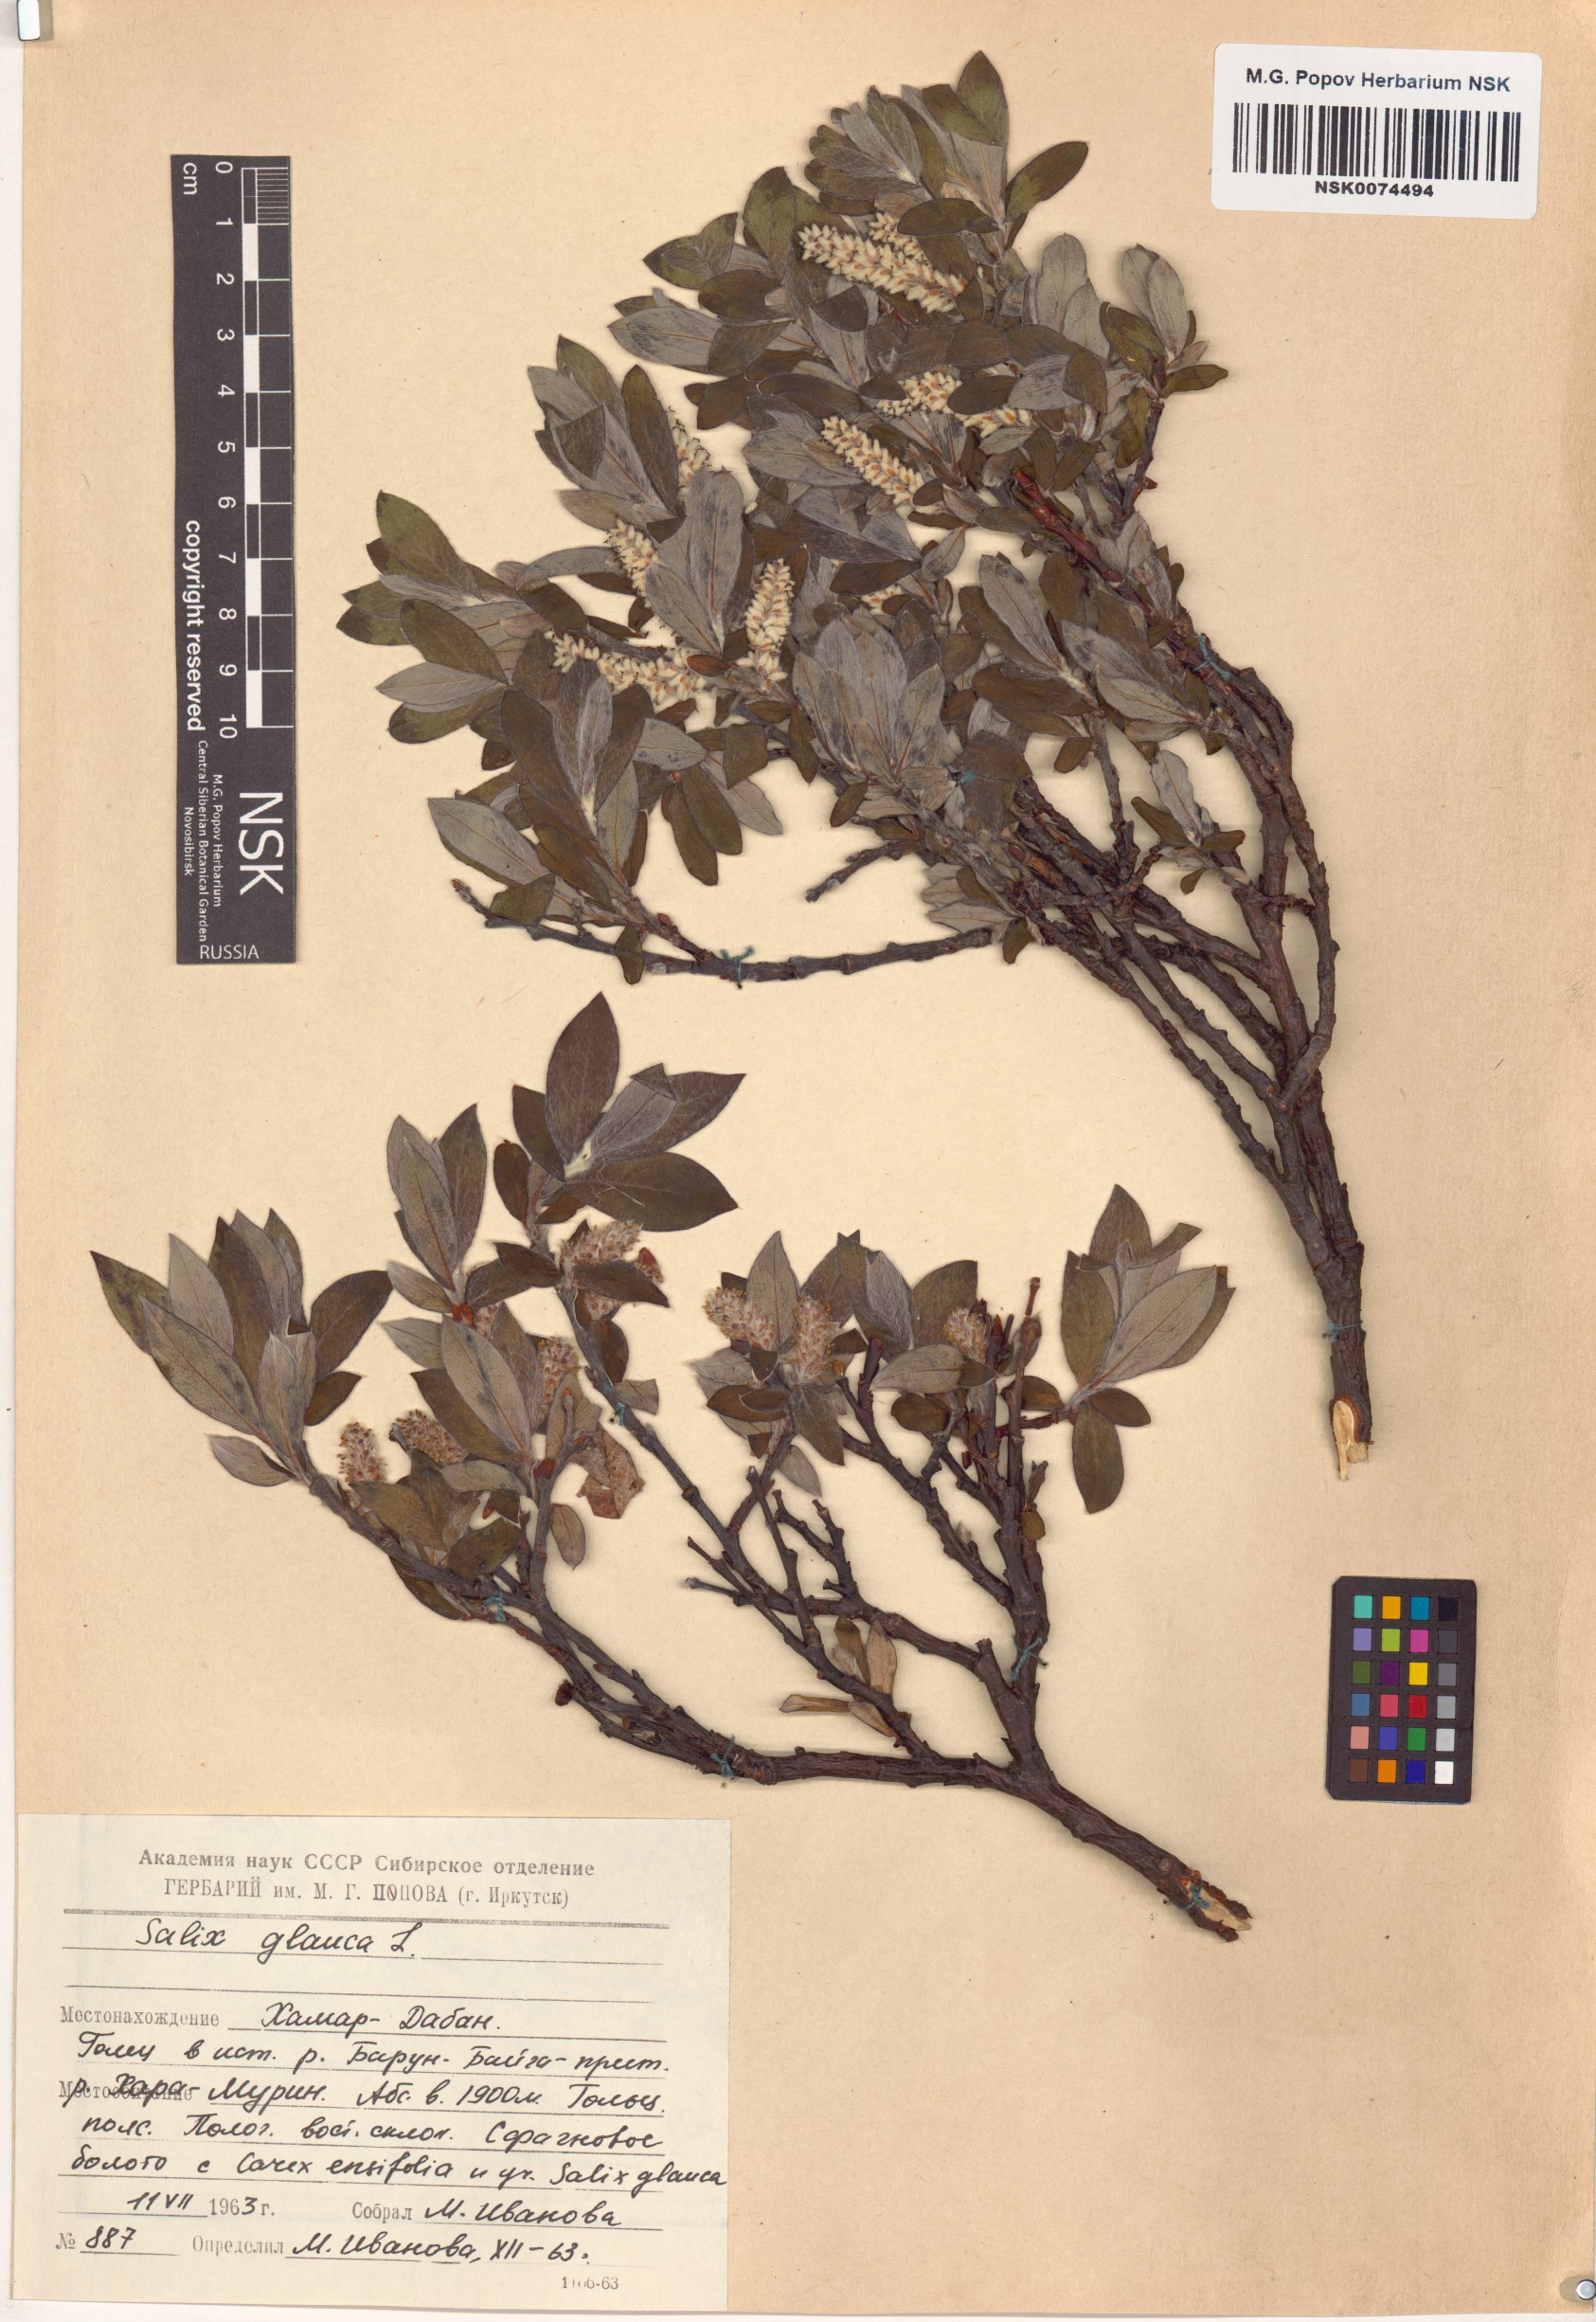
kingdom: Plantae
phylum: Tracheophyta
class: Magnoliopsida
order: Malpighiales
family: Salicaceae
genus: Salix
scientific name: Salix glauca
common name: Glaucous willow
